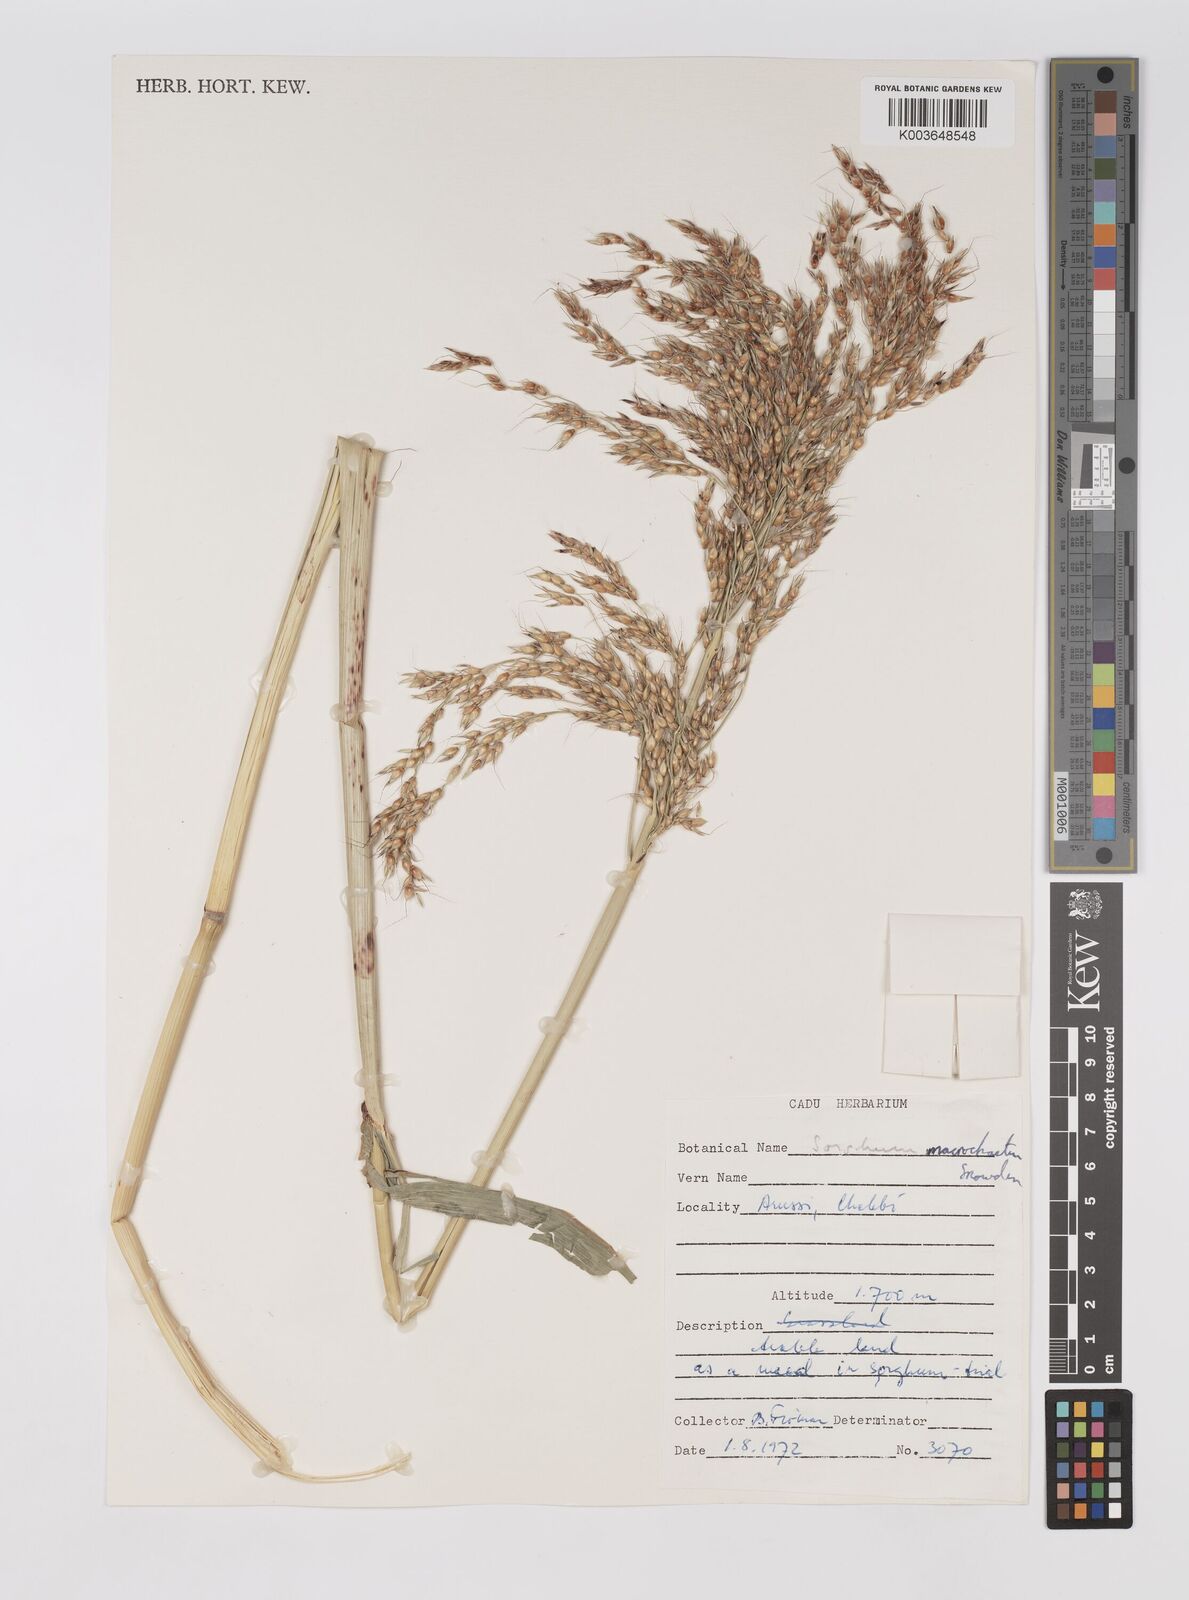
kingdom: Plantae
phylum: Tracheophyta
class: Liliopsida
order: Poales
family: Poaceae
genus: Sorghum
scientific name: Sorghum drummondii
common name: Sudangrass
